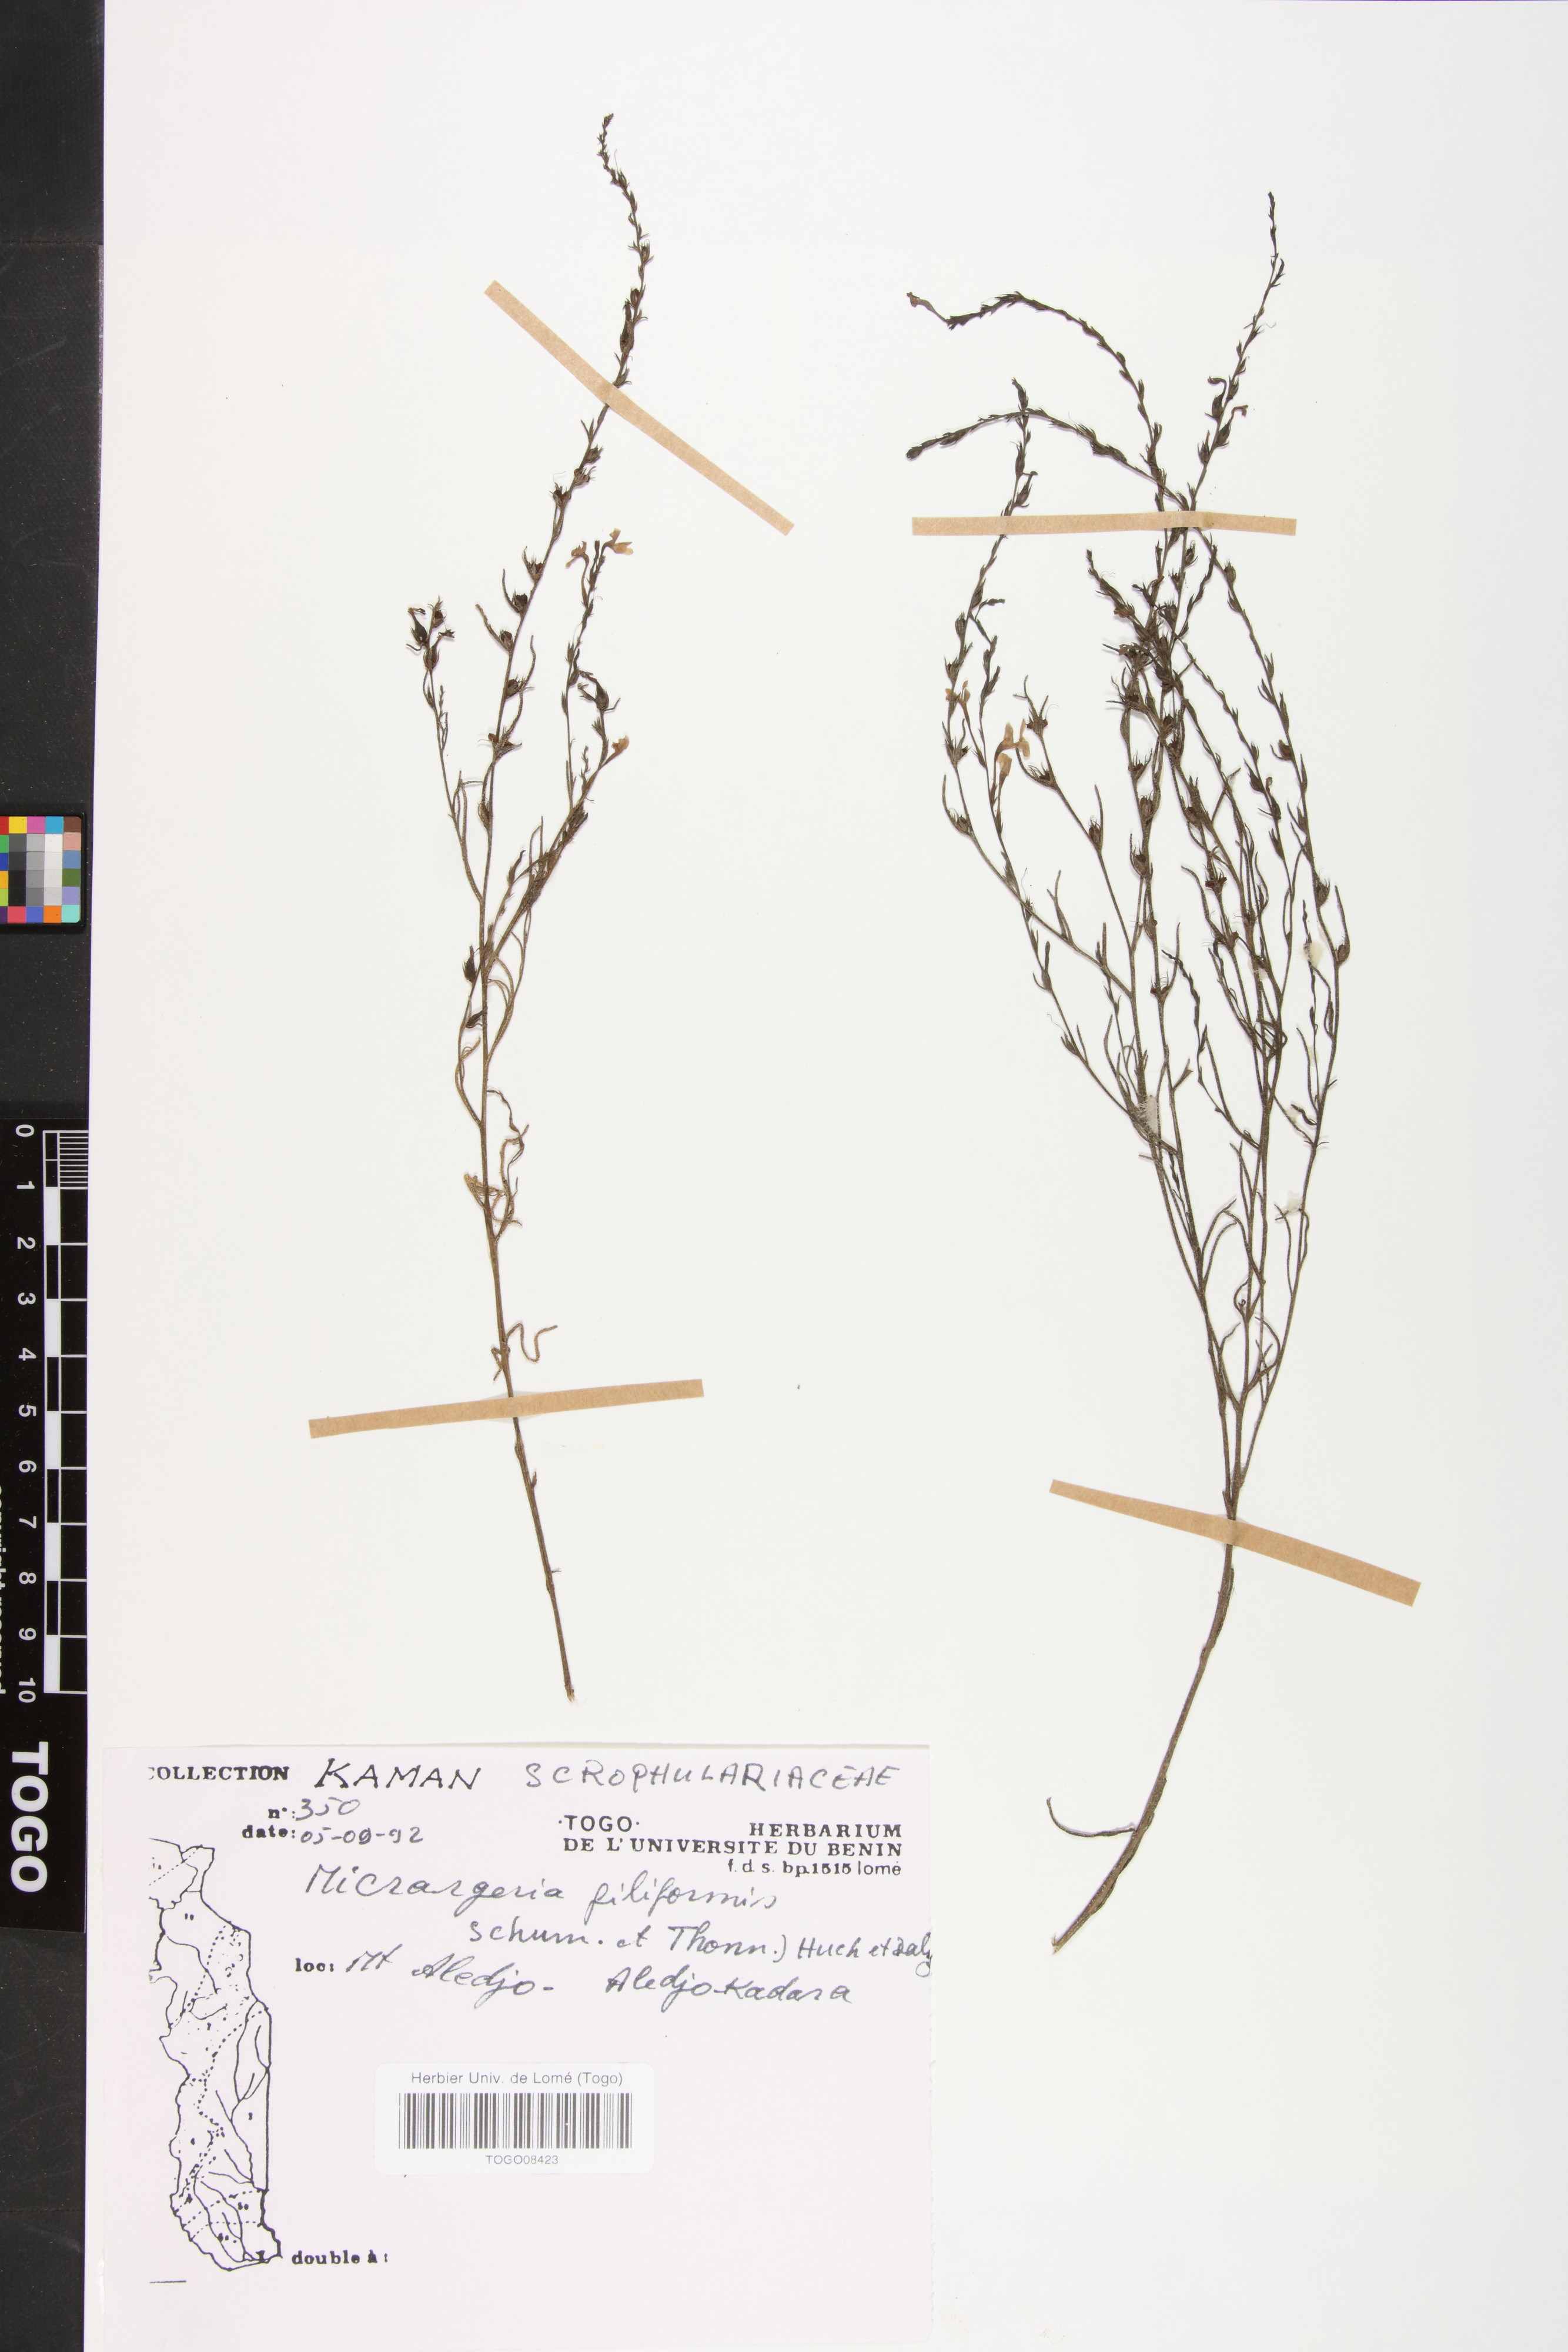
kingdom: Plantae
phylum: Tracheophyta
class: Magnoliopsida
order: Lamiales
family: Orobanchaceae
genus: Micrargeria
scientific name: Micrargeria filiformis
